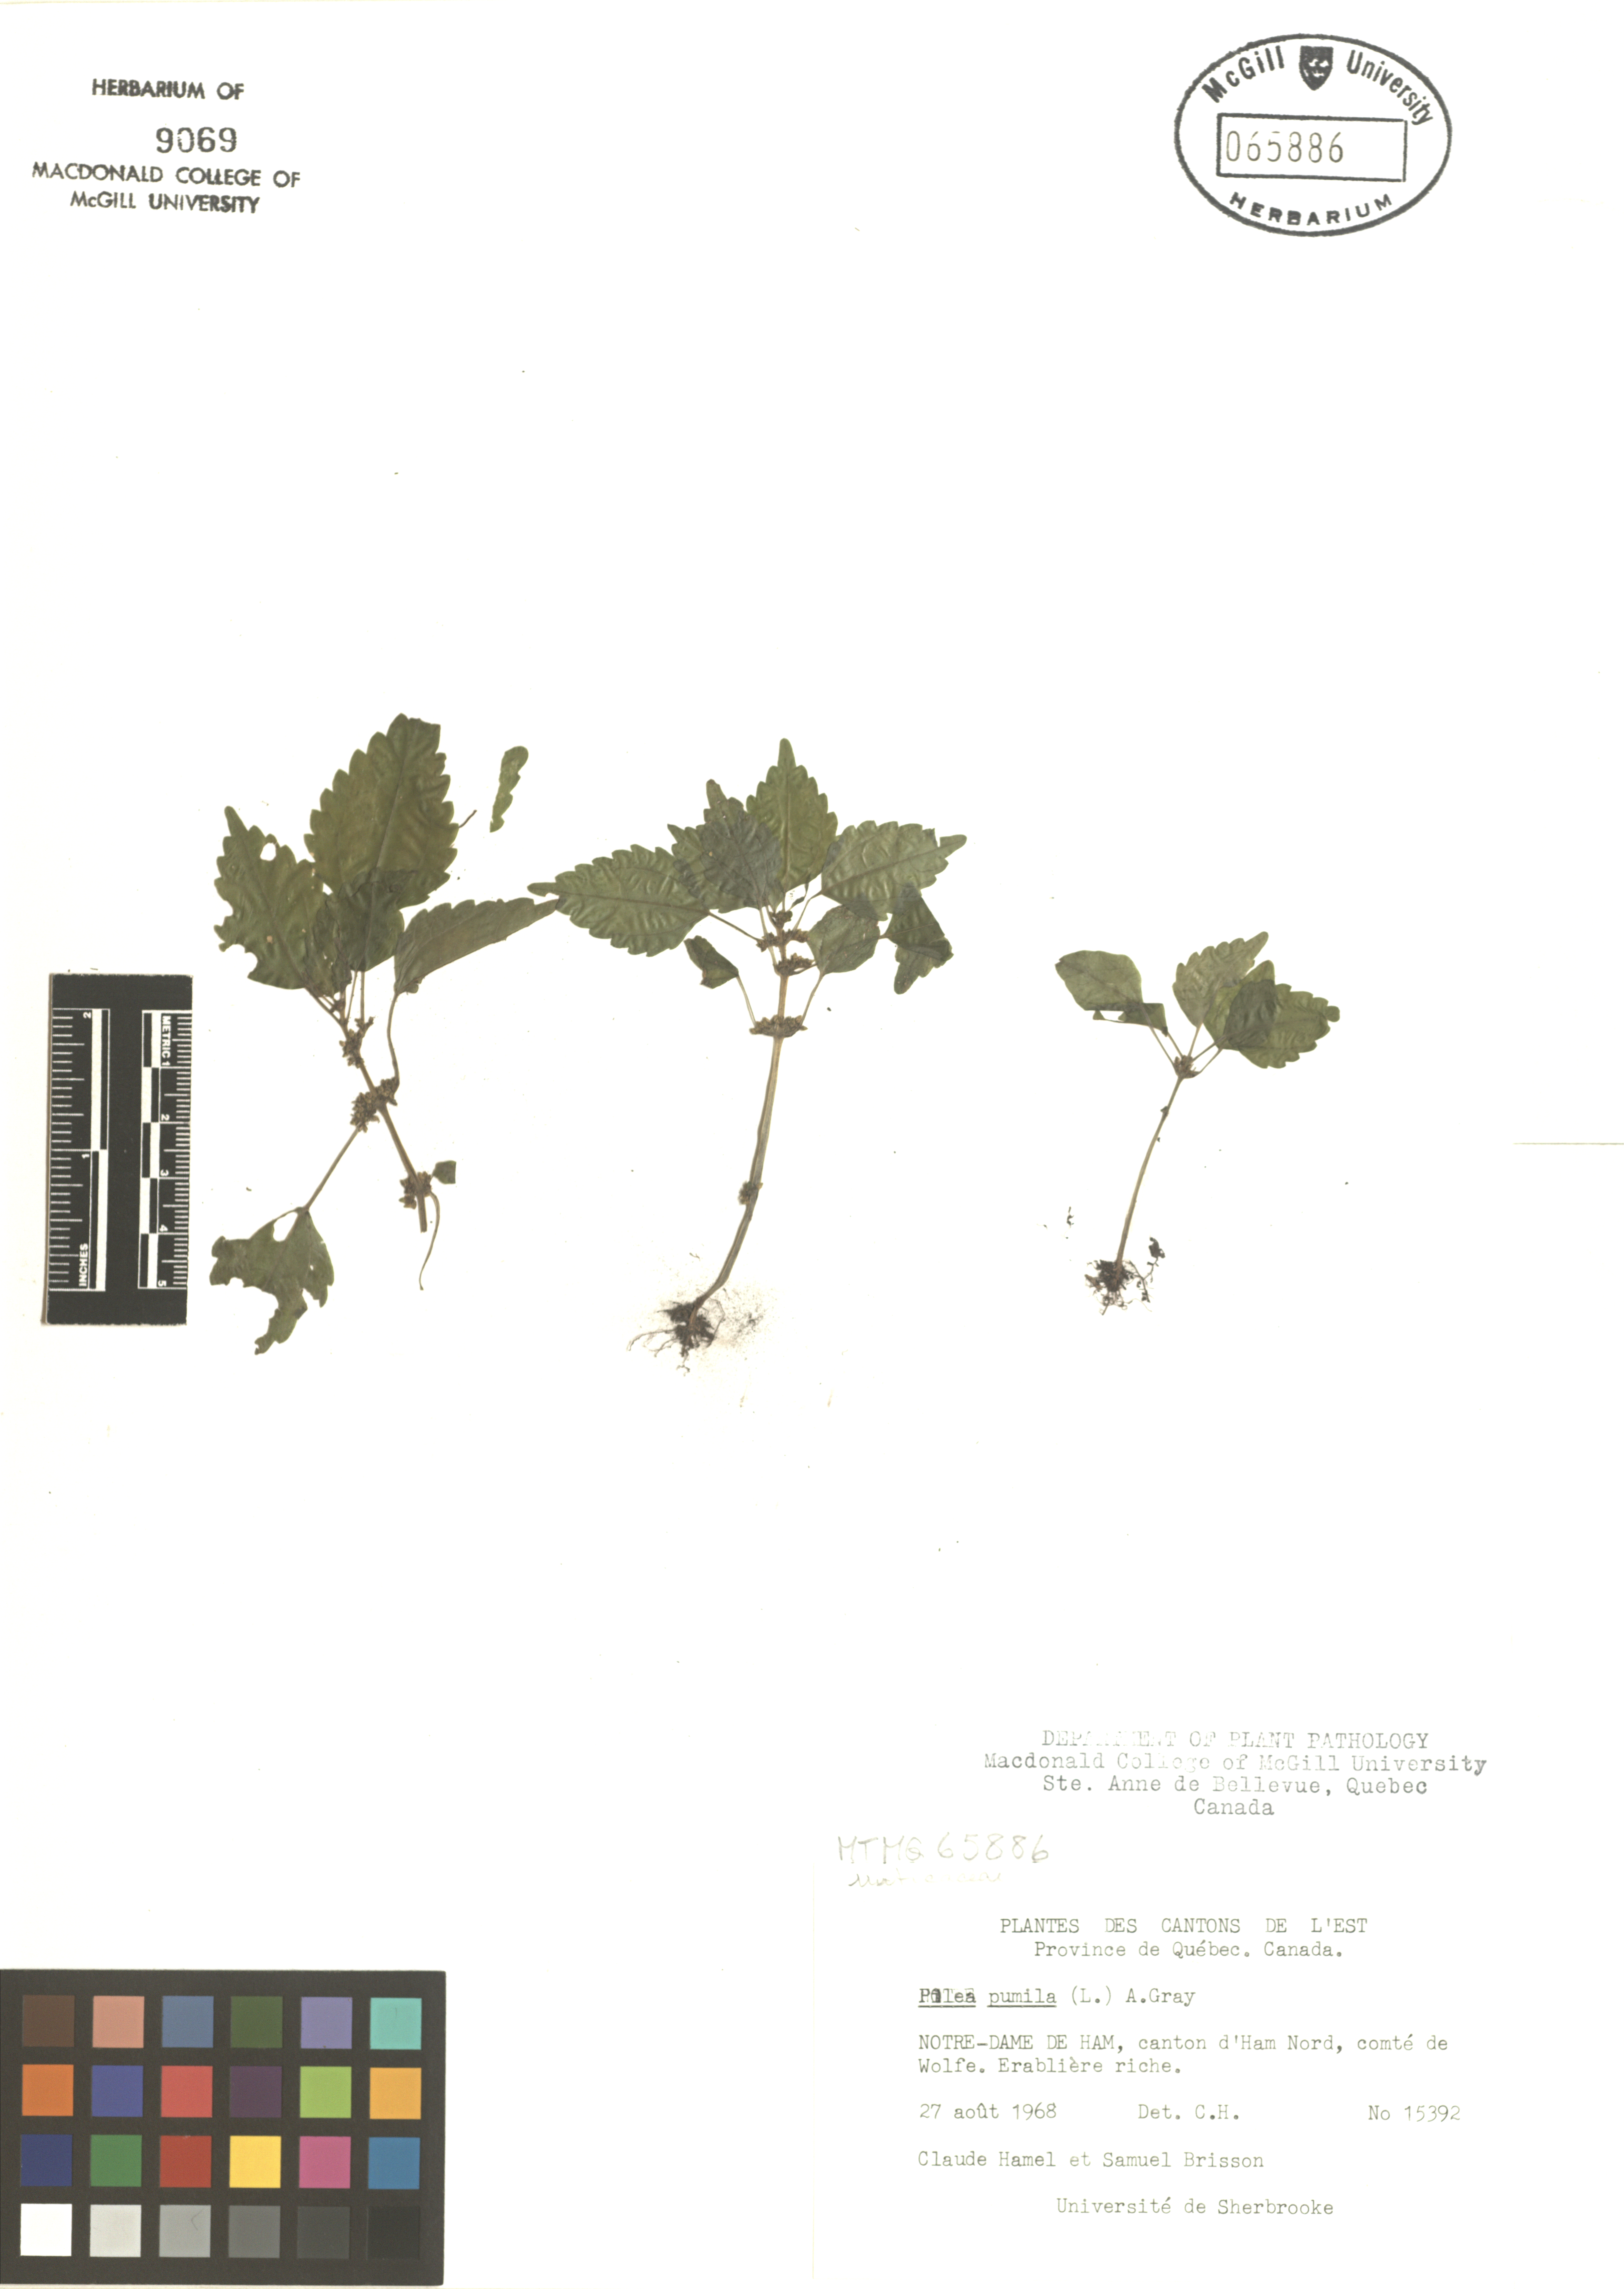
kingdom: Plantae
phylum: Tracheophyta
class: Magnoliopsida
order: Rosales
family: Urticaceae
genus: Pilea
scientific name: Pilea pumila
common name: Clearweed
